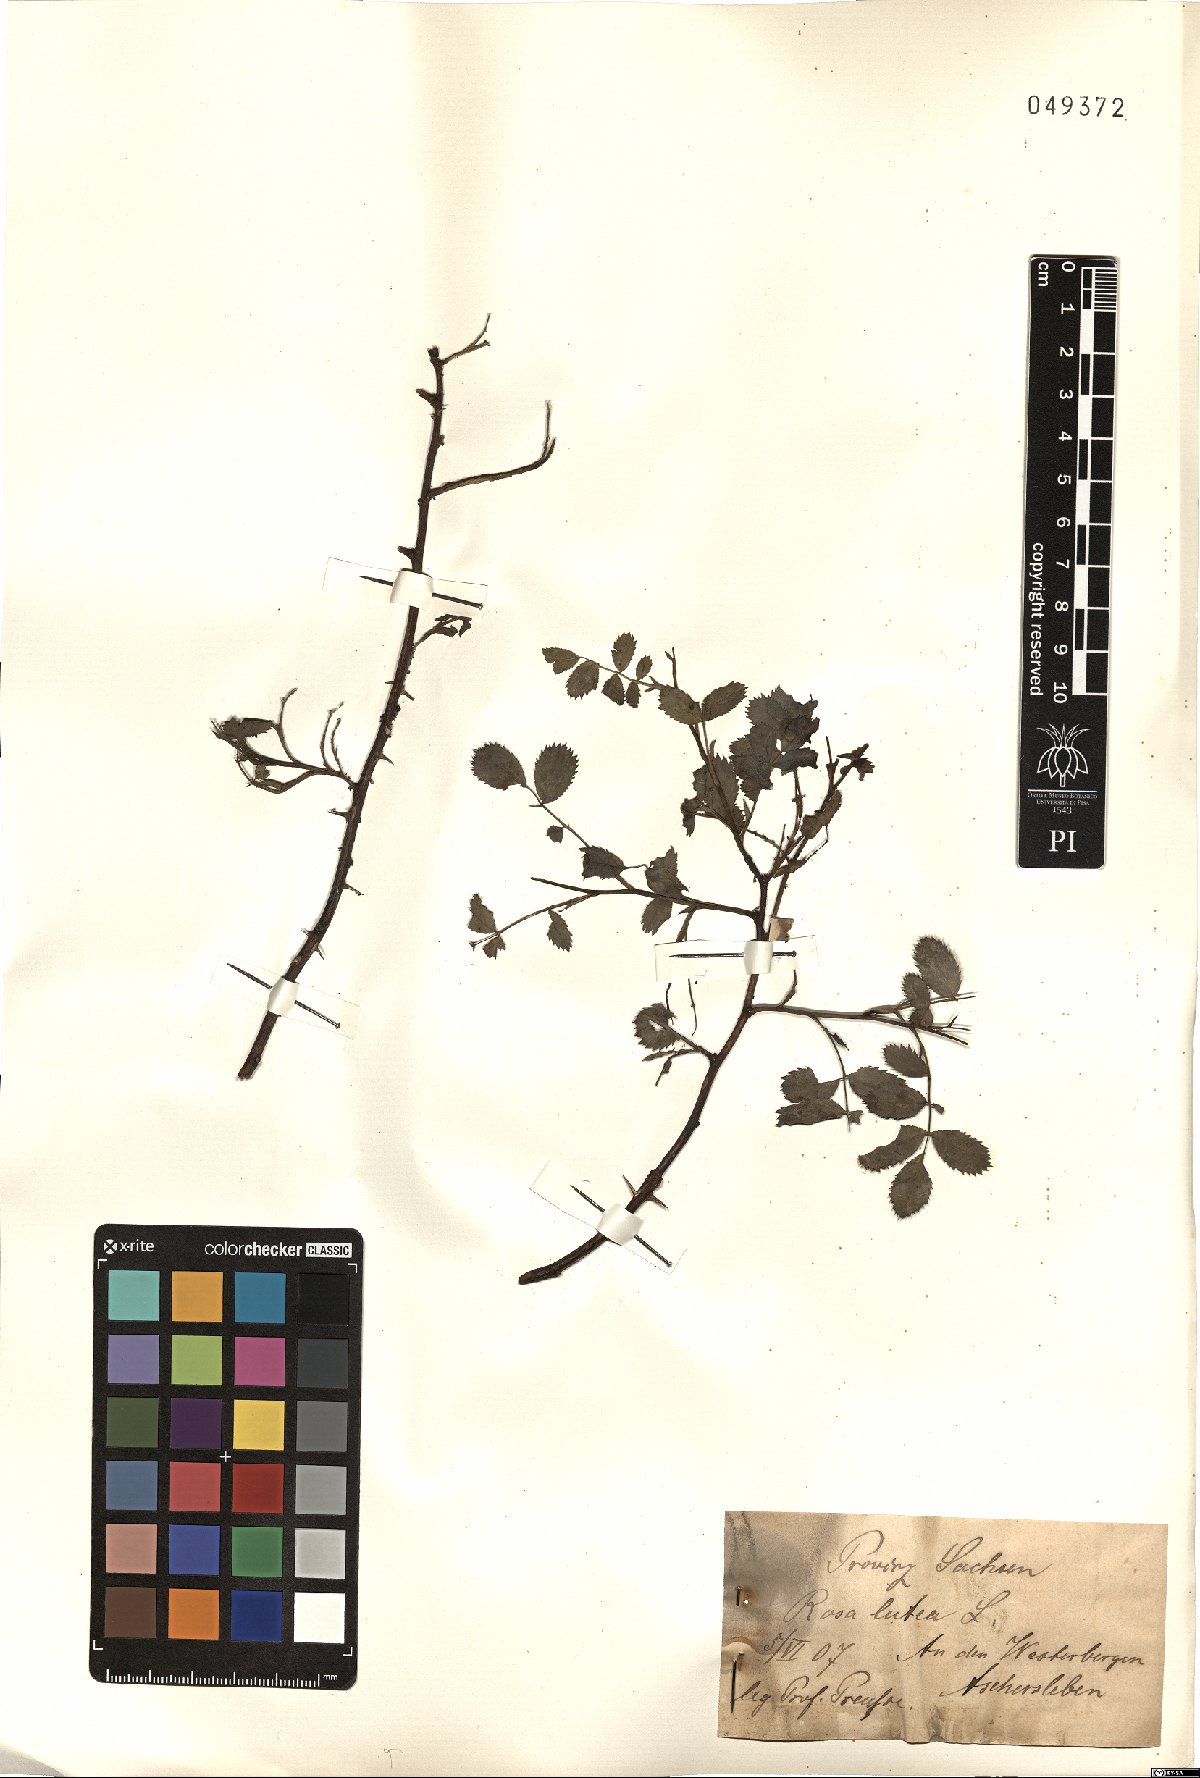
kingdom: Plantae
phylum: Tracheophyta
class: Magnoliopsida
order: Rosales
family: Rosaceae
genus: Rosa
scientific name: Rosa foetida
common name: Persian yellow rose
